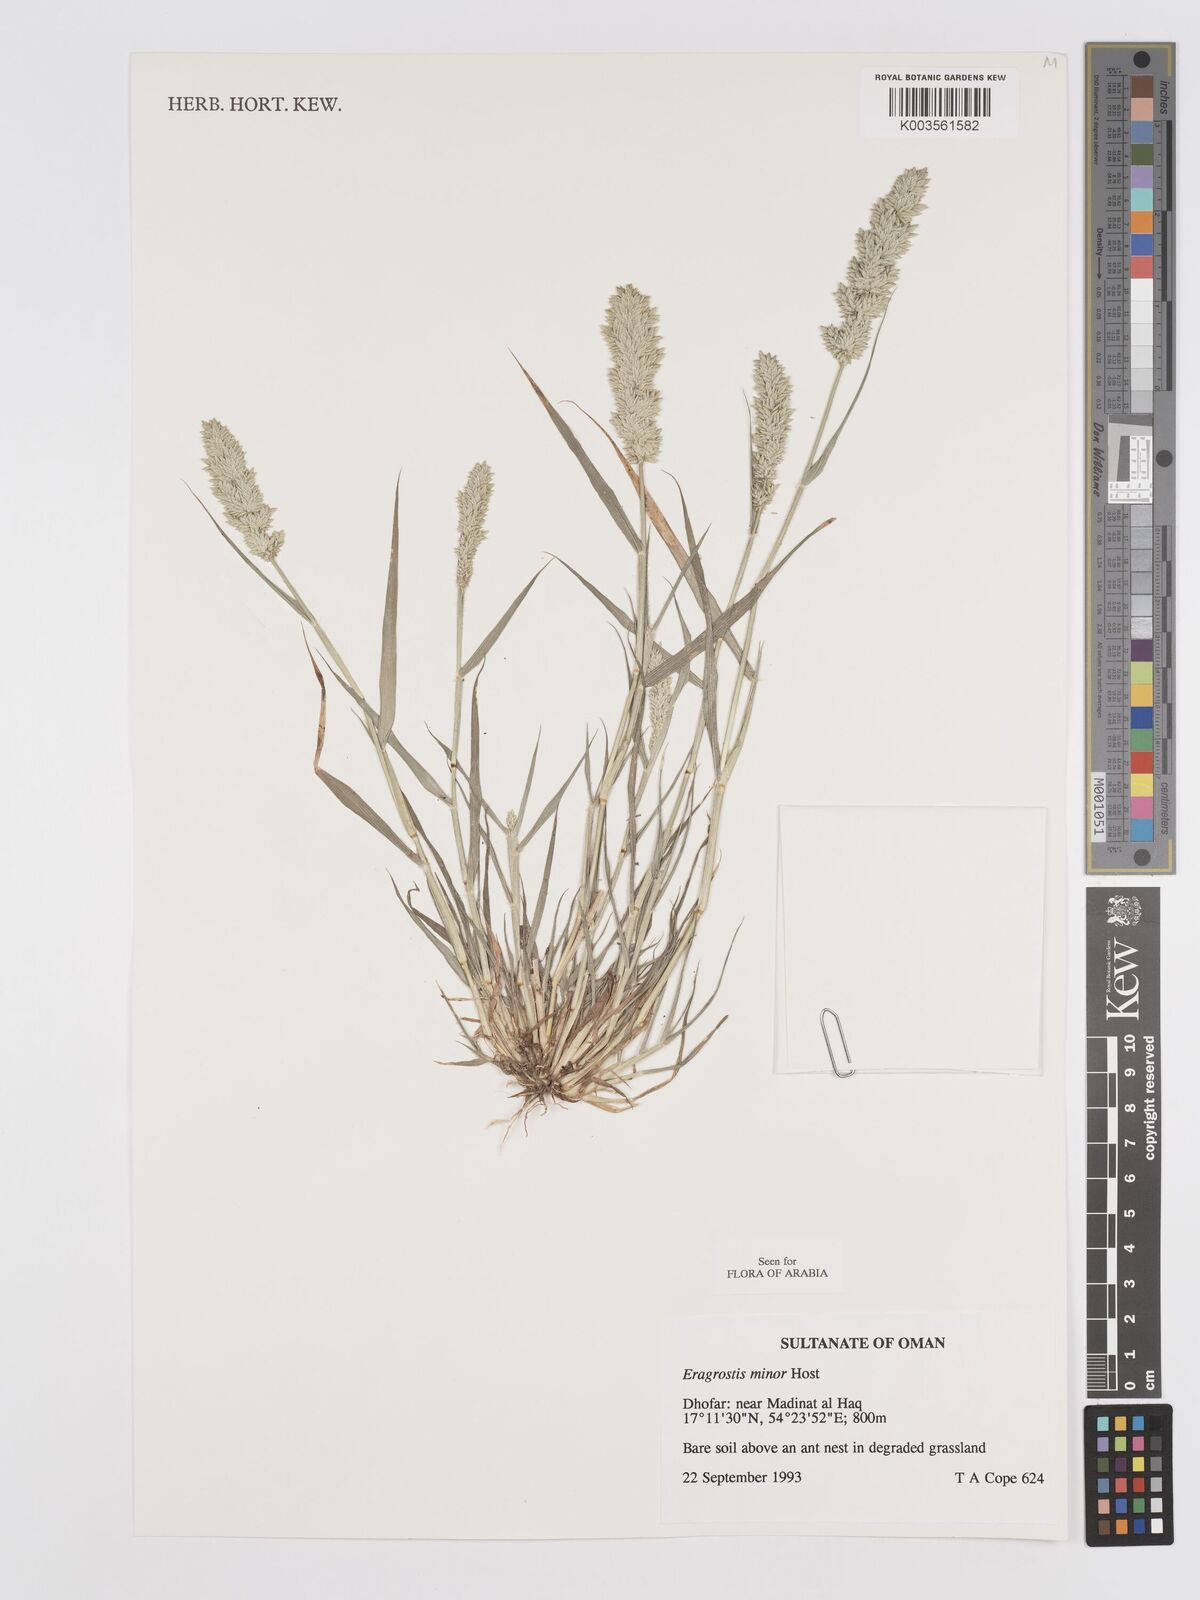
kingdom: Plantae
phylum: Tracheophyta
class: Liliopsida
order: Poales
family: Poaceae
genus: Eragrostis
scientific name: Eragrostis minor
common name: Small love-grass
